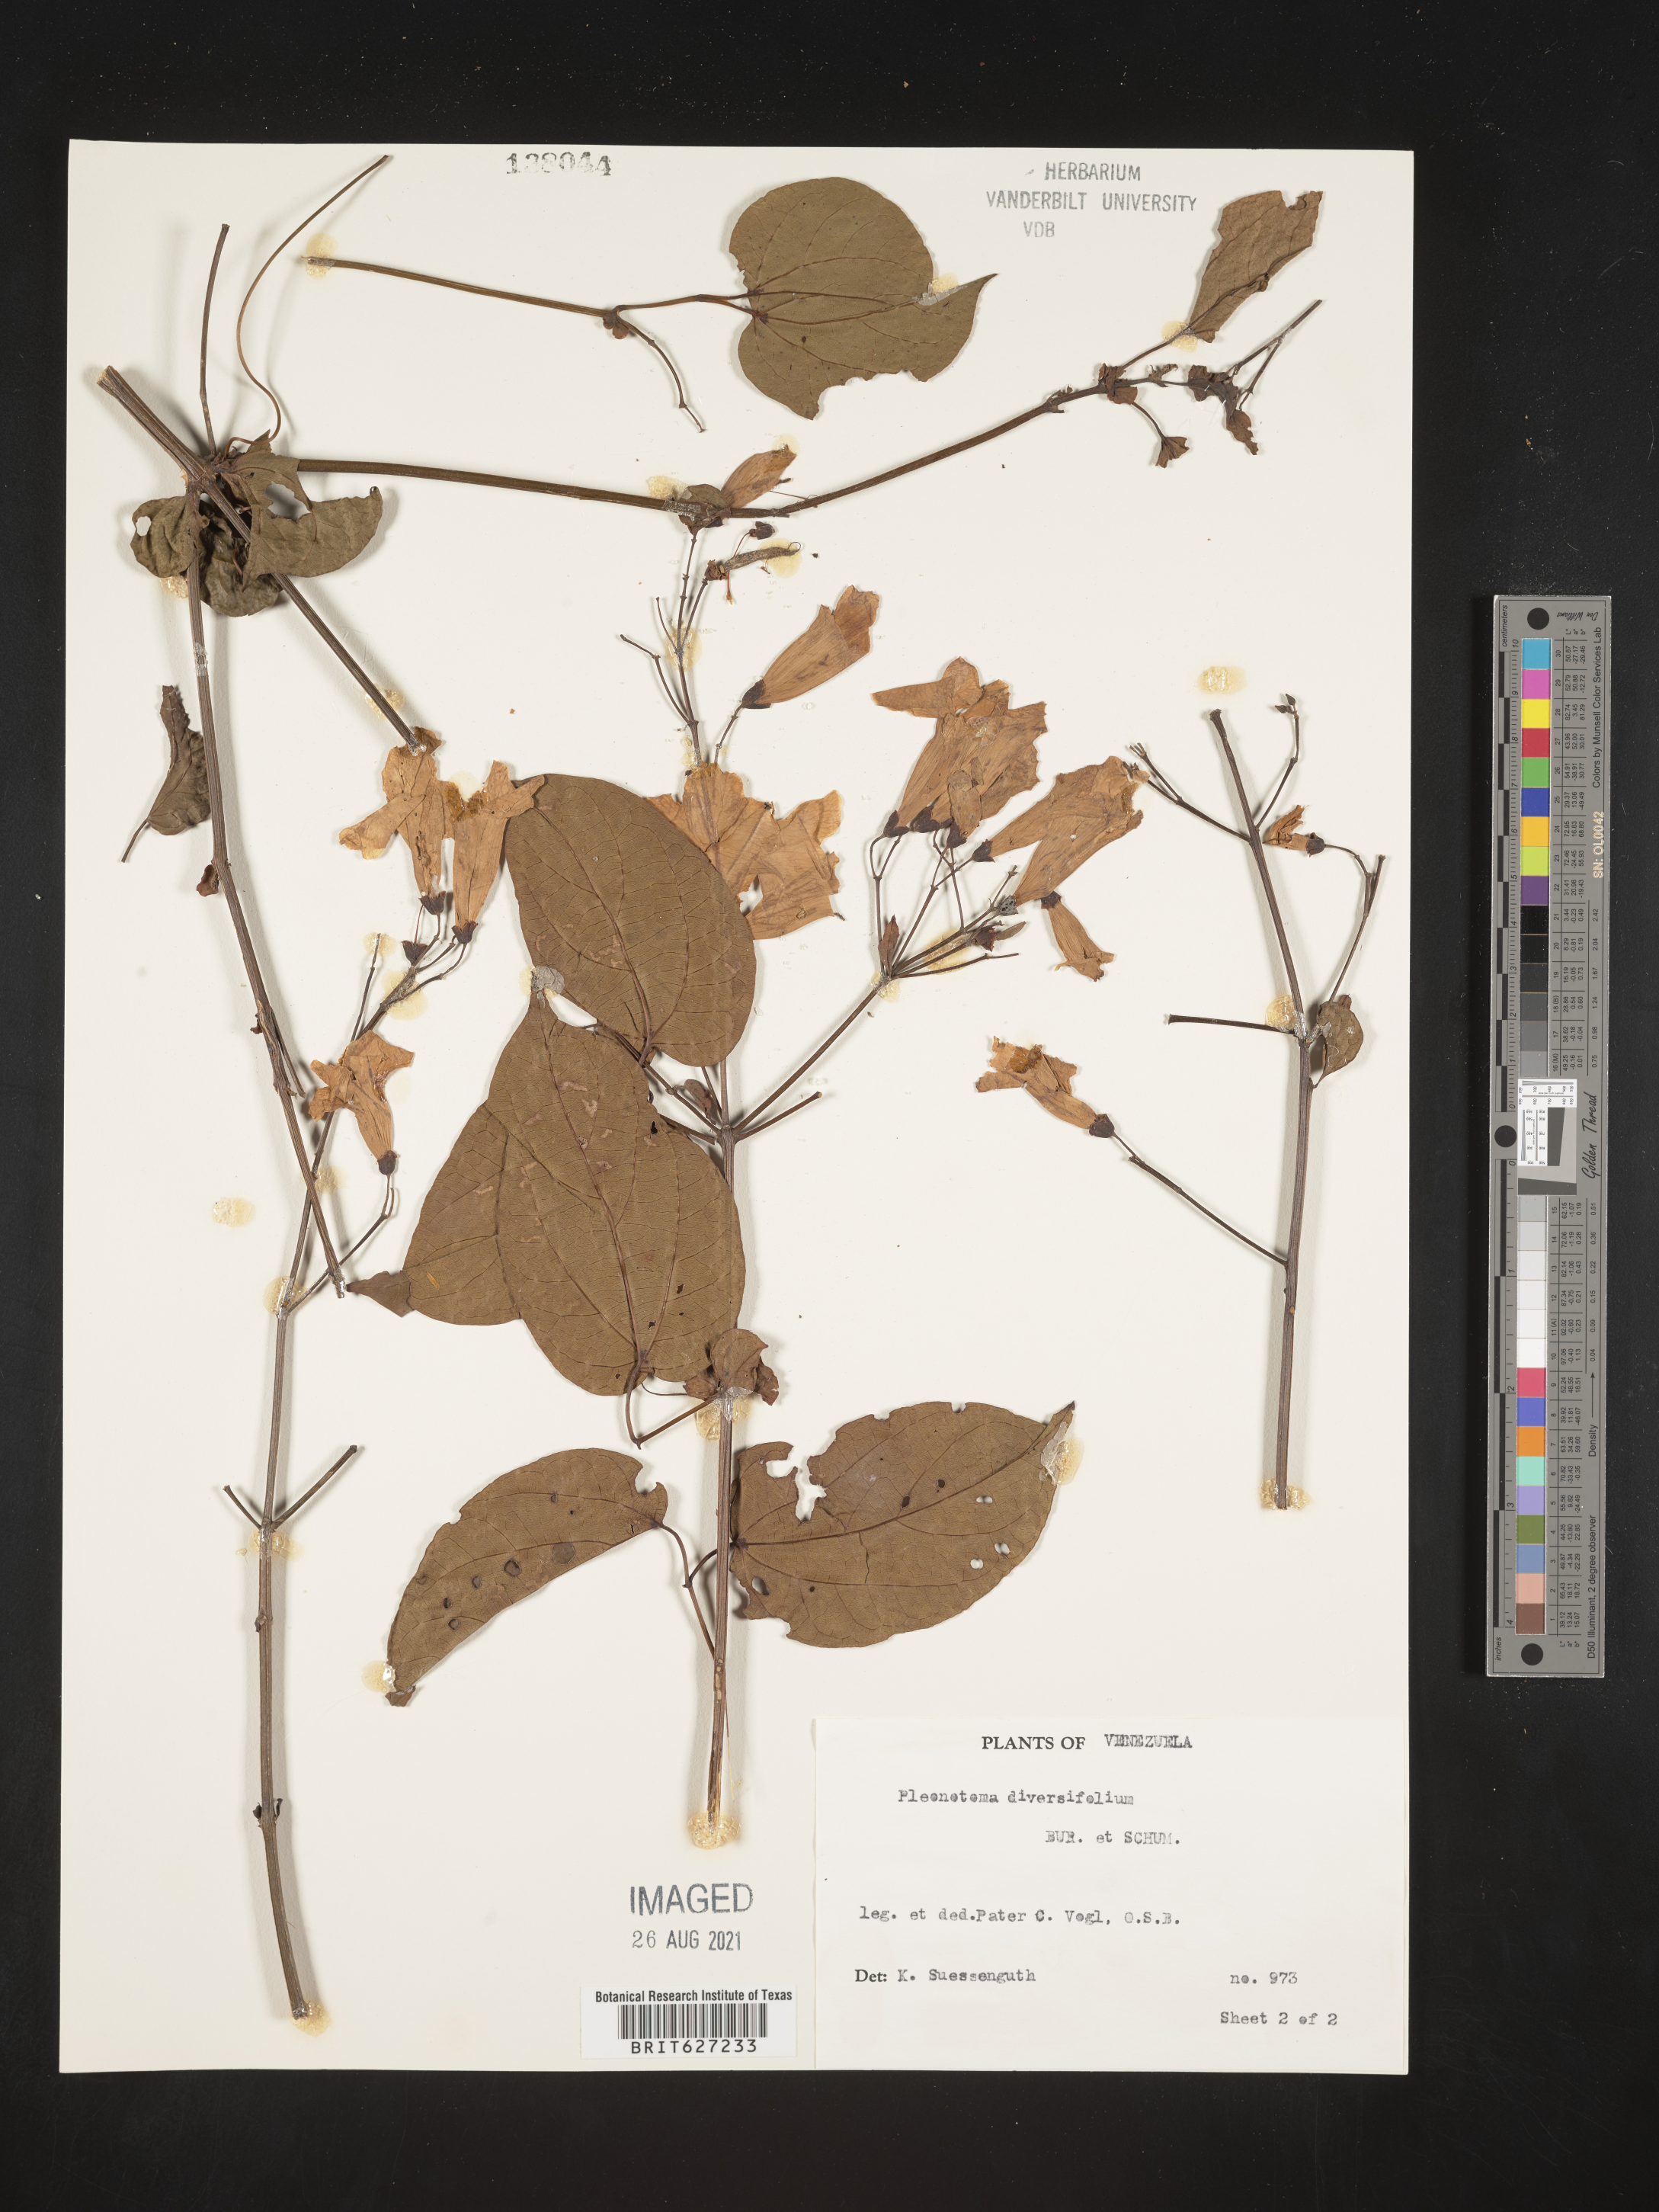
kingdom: Plantae
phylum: Tracheophyta
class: Magnoliopsida
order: Lamiales
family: Bignoniaceae
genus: Bignonia
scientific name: Bignonia diversifolia
